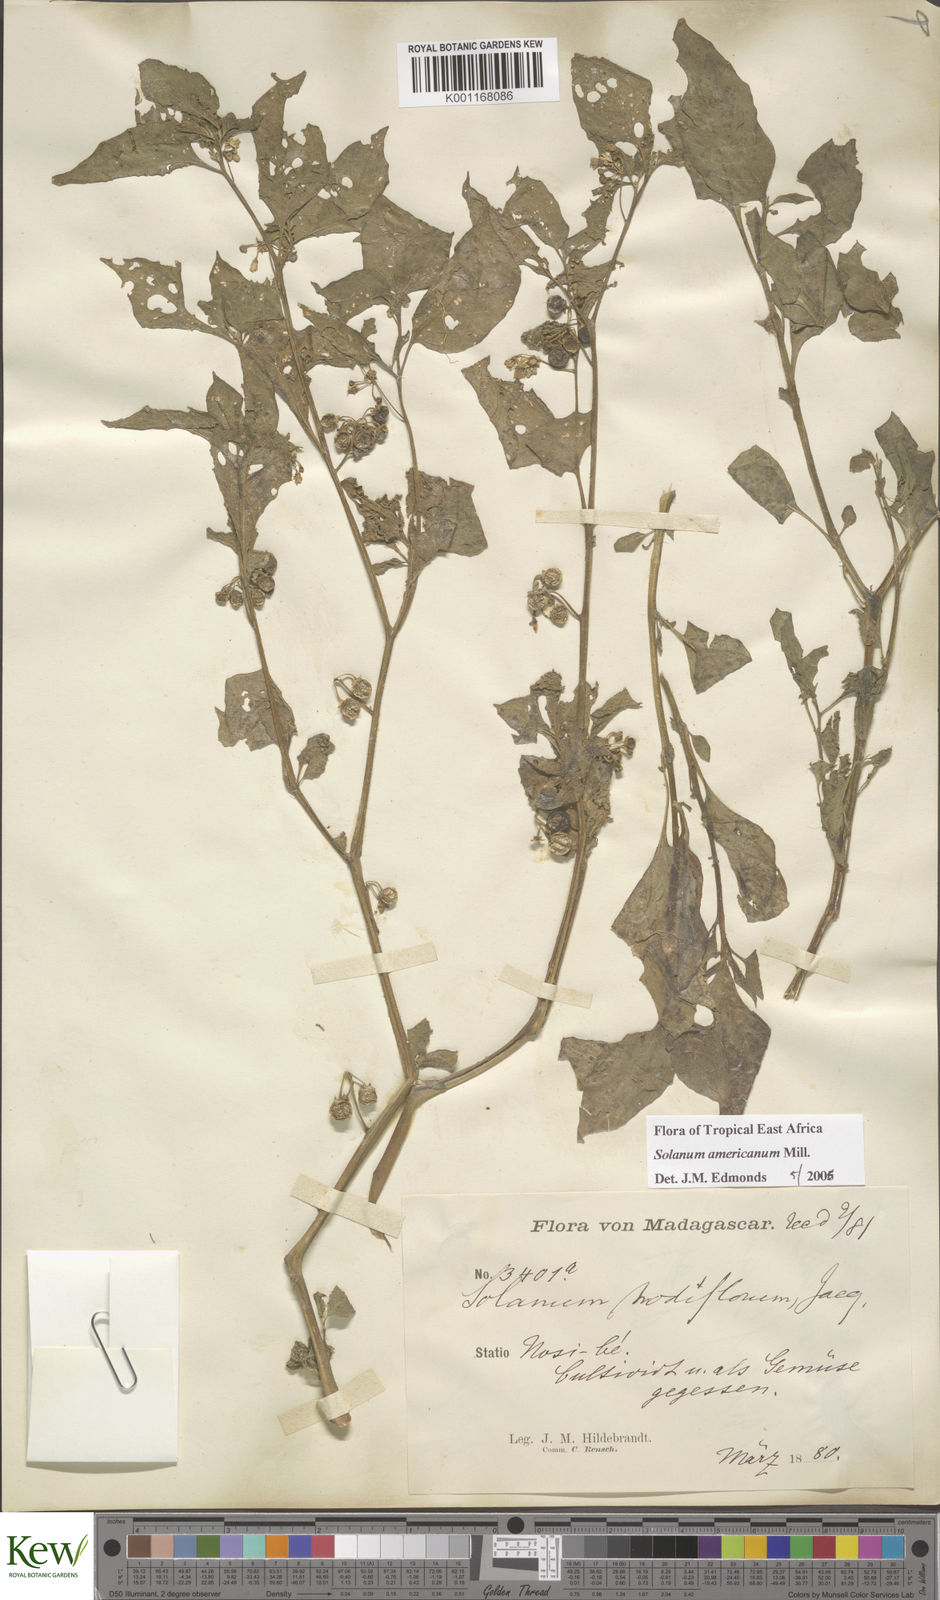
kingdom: Plantae
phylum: Tracheophyta
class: Magnoliopsida
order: Solanales
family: Solanaceae
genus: Solanum
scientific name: Solanum americanum
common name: American black nightshade
